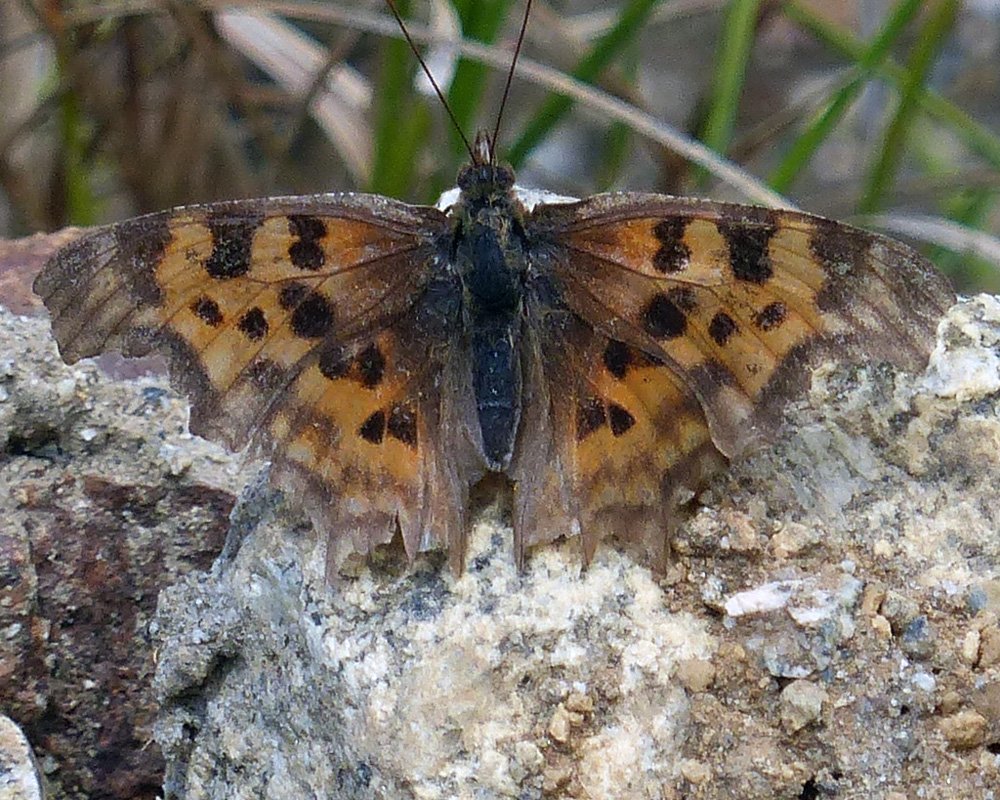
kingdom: Animalia
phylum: Arthropoda
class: Insecta
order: Lepidoptera
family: Nymphalidae
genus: Polygonia
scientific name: Polygonia faunus
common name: Green Comma
